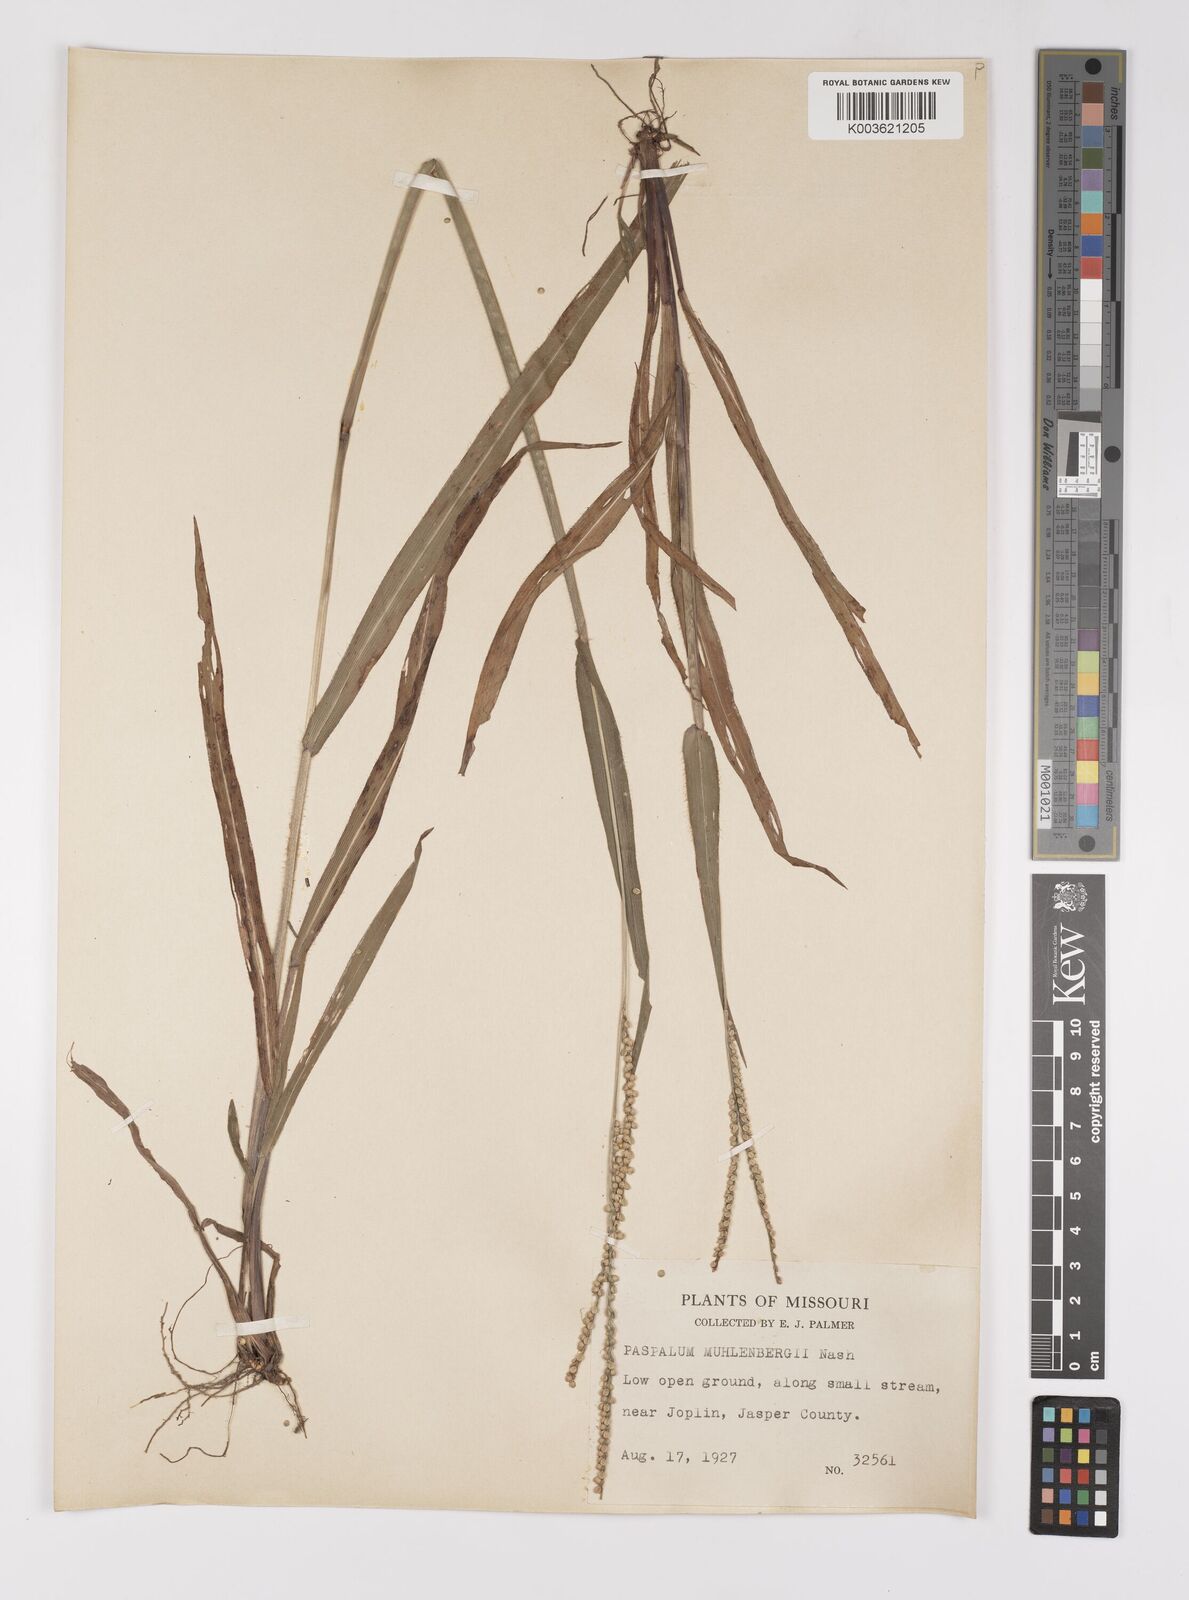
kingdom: Plantae
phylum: Tracheophyta
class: Liliopsida
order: Poales
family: Poaceae
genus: Paspalum
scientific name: Paspalum setaceum
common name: Slender paspalum
